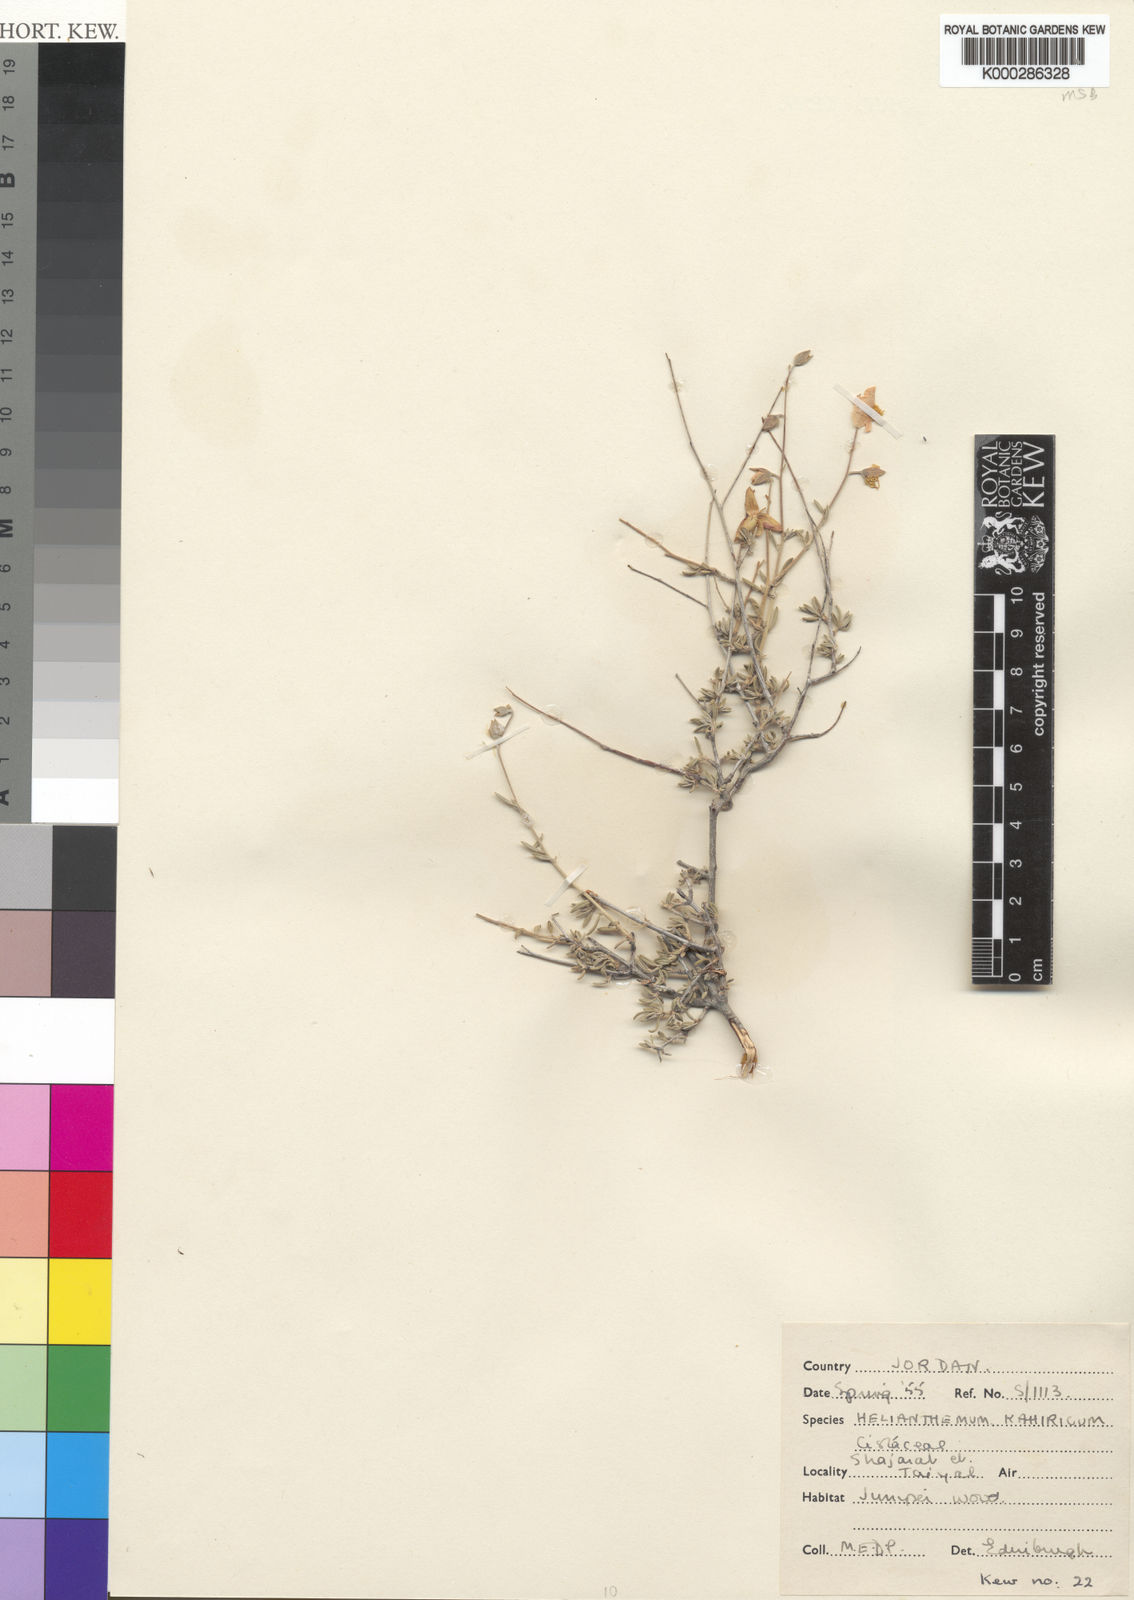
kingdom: Plantae
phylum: Tracheophyta
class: Magnoliopsida
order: Malvales
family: Cistaceae
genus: Helianthemum
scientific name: Helianthemum kahiricum
